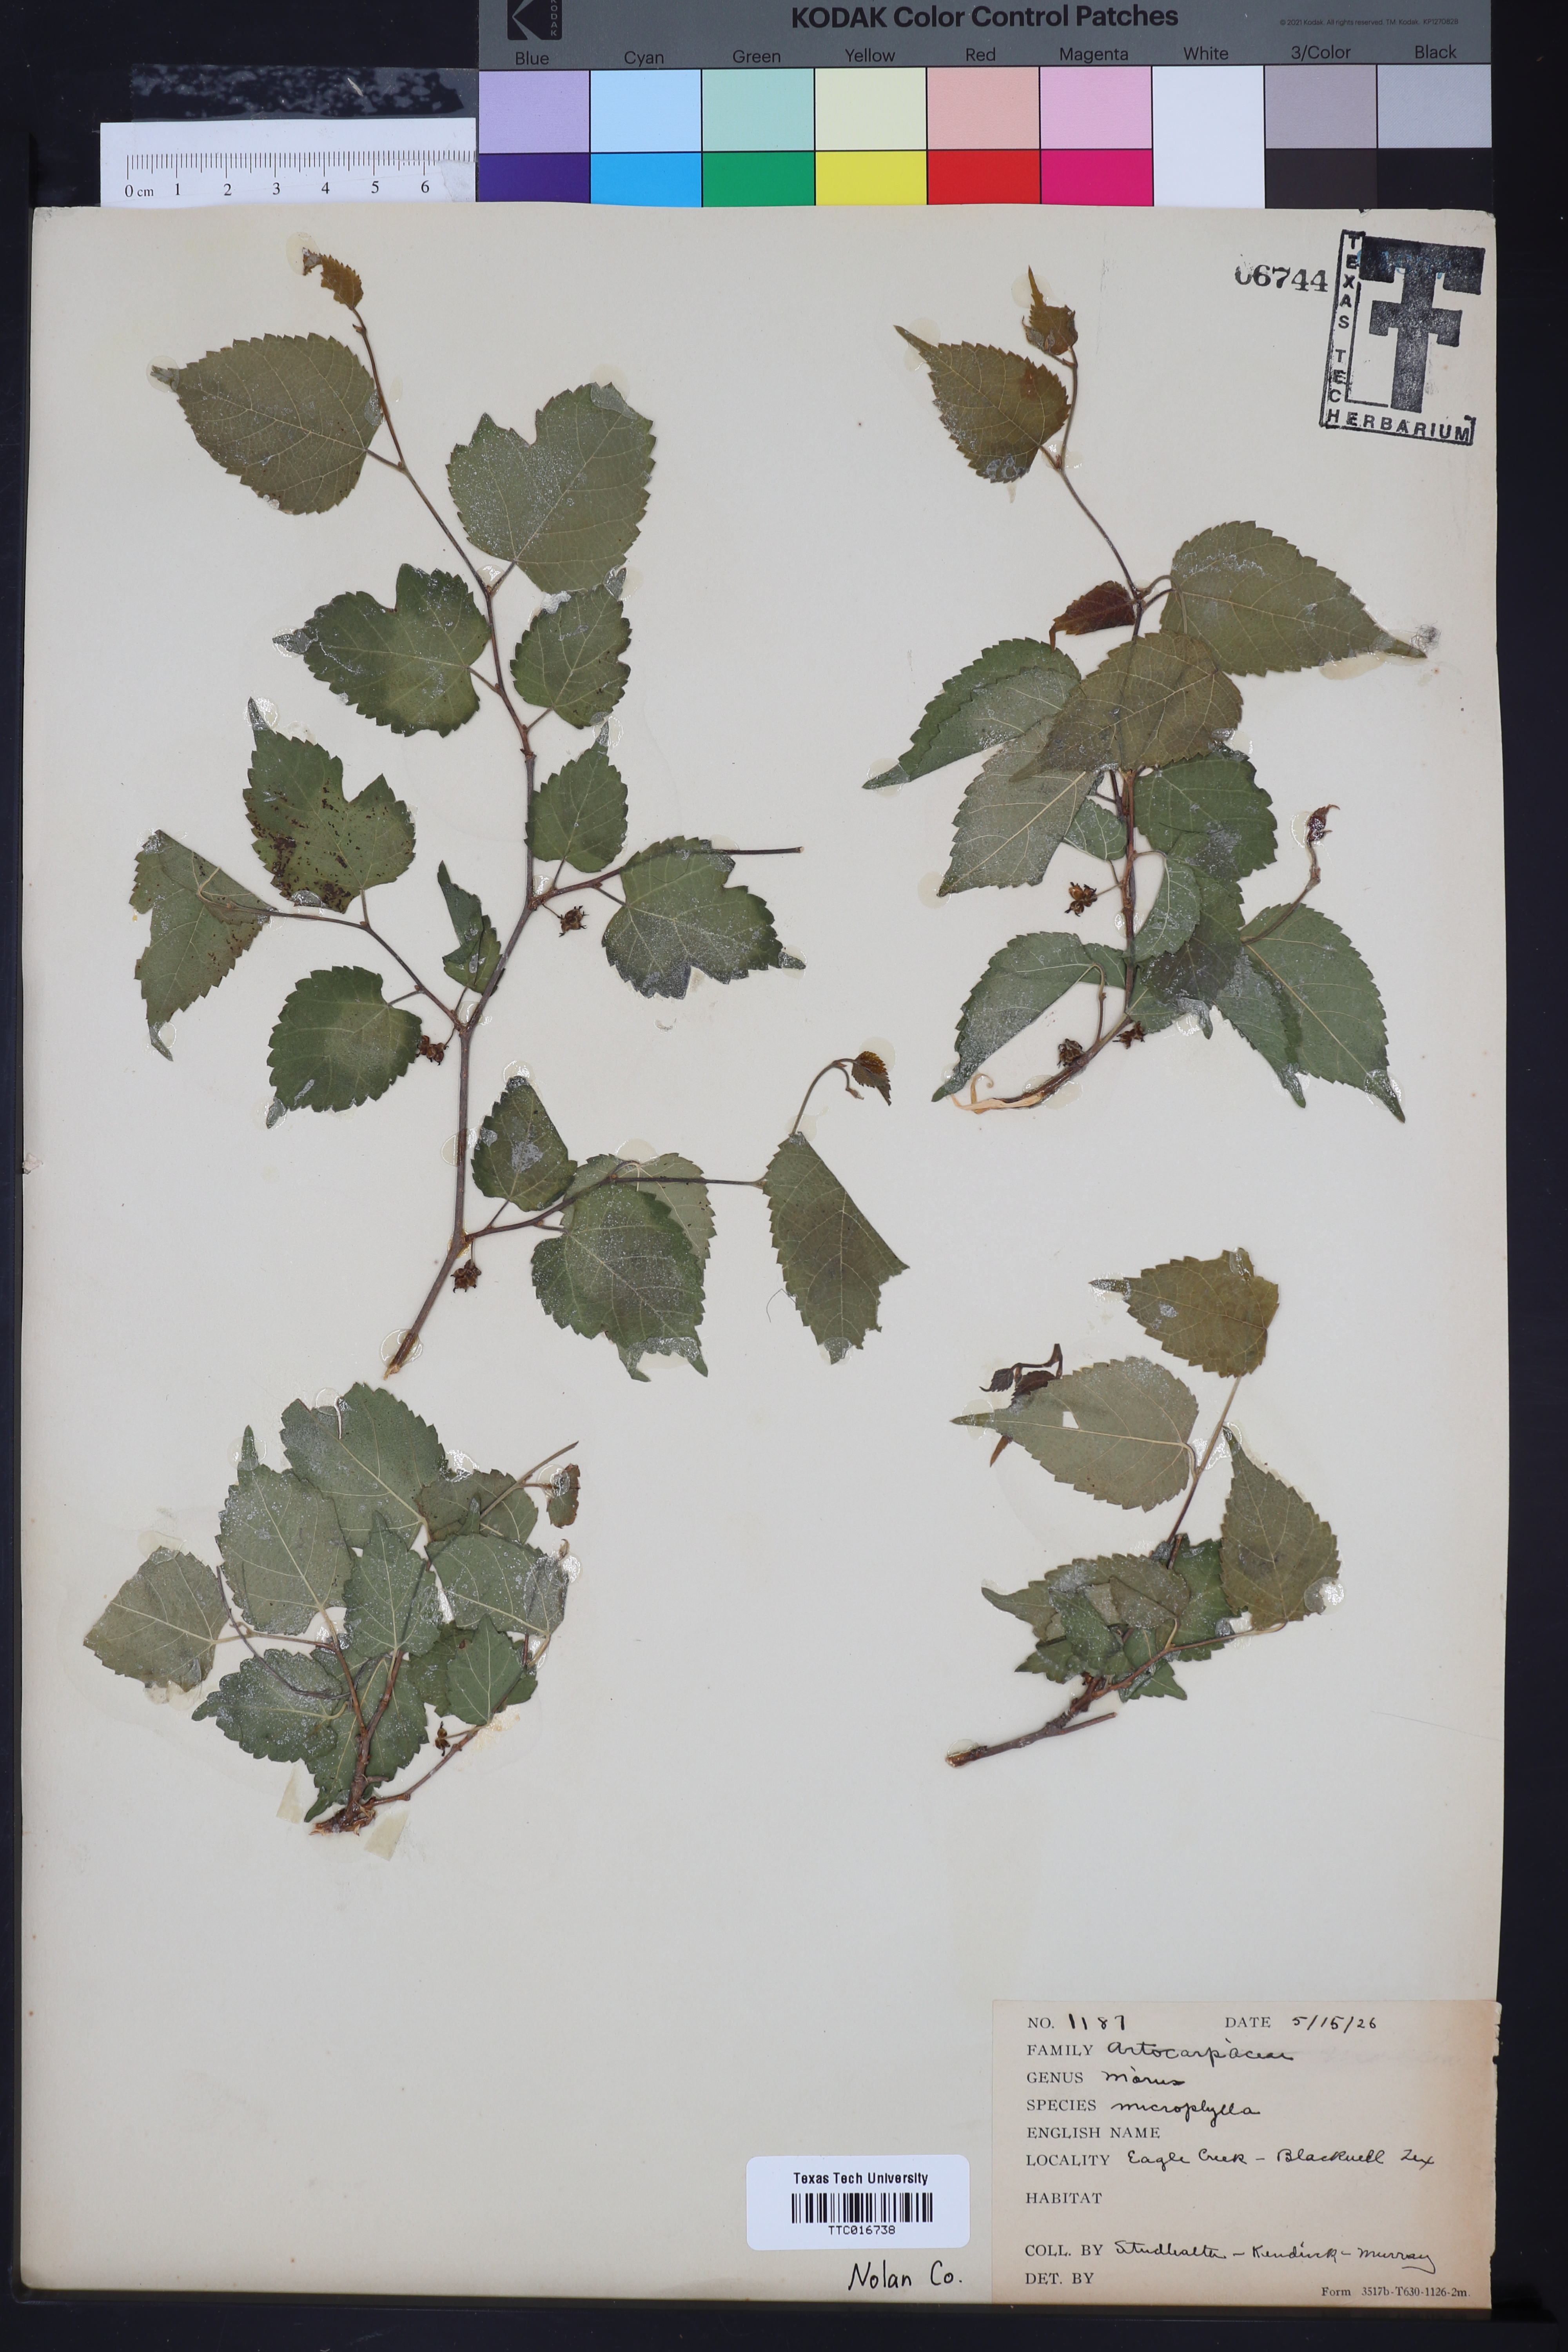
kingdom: Plantae
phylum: Tracheophyta
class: Magnoliopsida
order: Rosales
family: Moraceae
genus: Morus
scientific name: Morus microphylla
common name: Mexican mulberry
